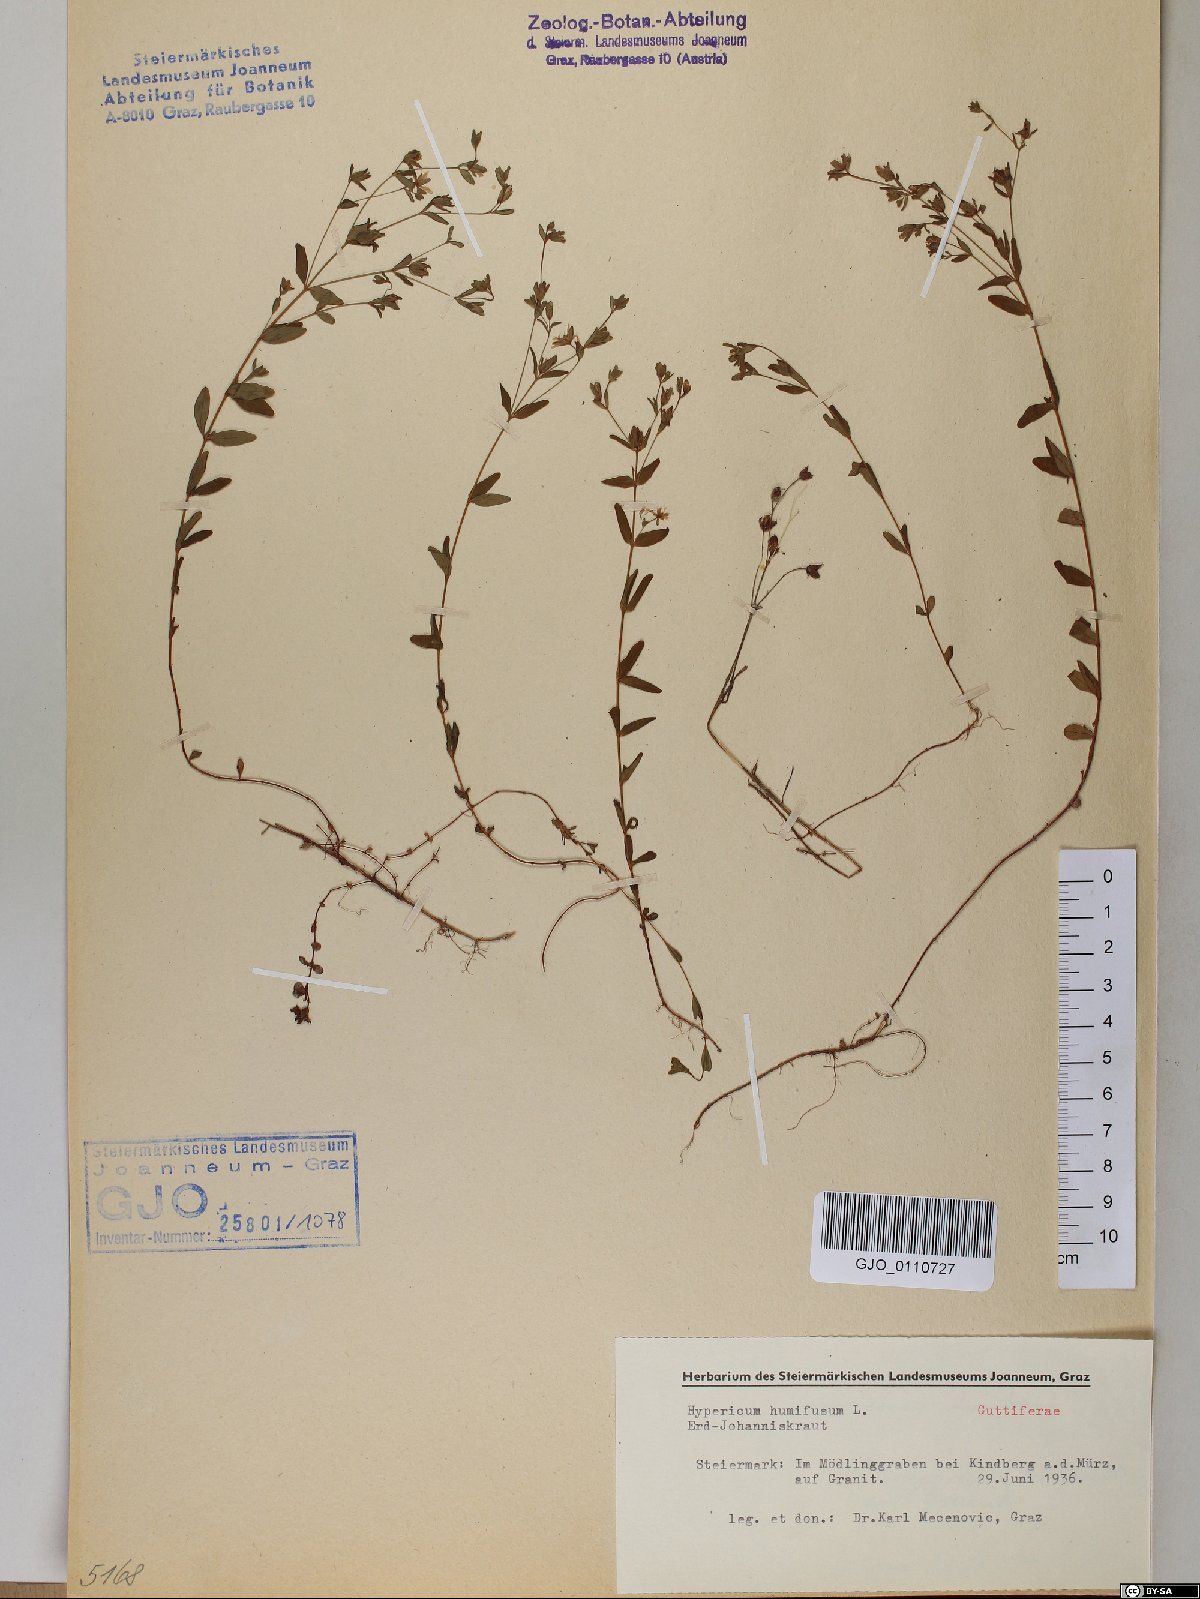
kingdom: Plantae
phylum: Tracheophyta
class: Magnoliopsida
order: Malpighiales
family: Hypericaceae
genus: Hypericum
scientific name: Hypericum humifusum
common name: Trailing st. john's-wort
